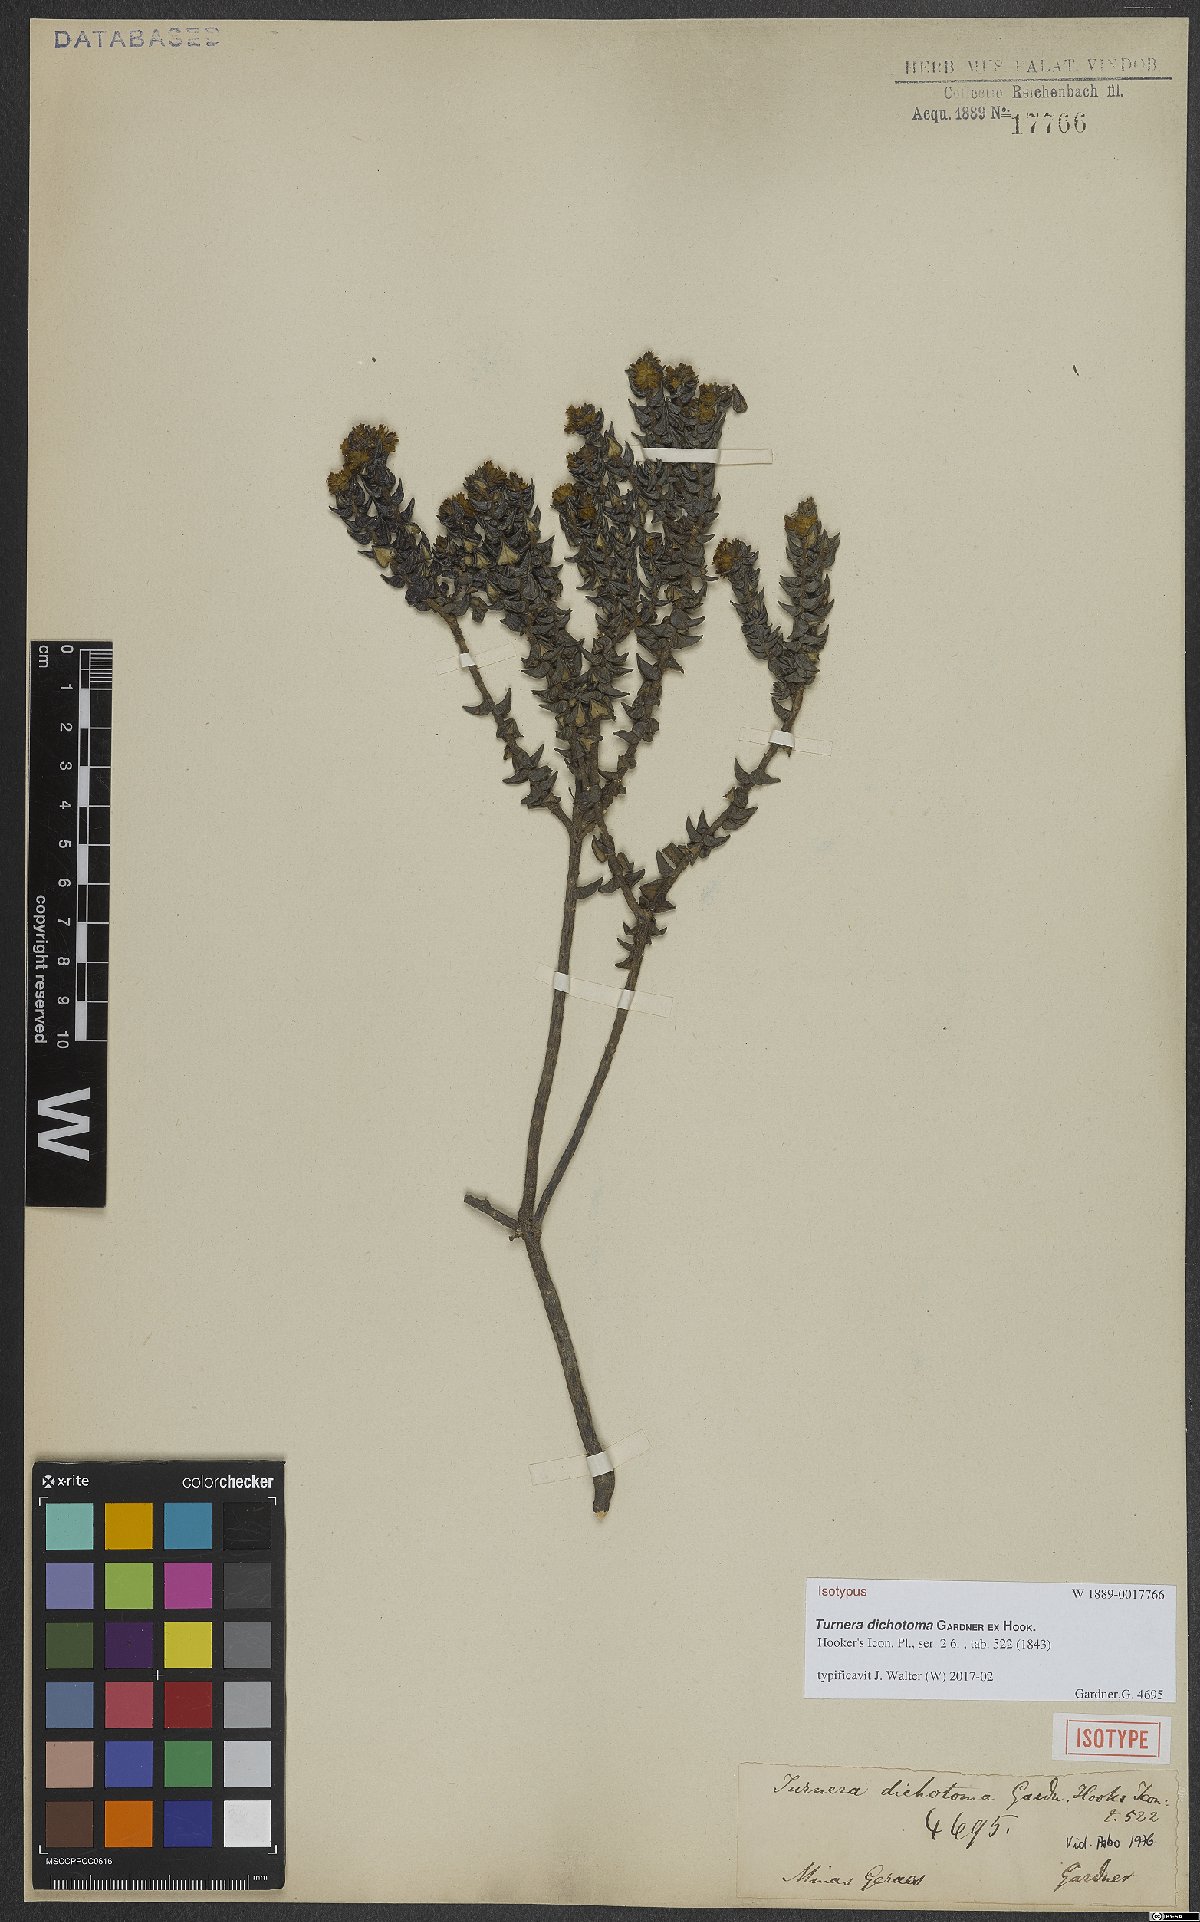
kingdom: Plantae
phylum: Tracheophyta
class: Magnoliopsida
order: Malpighiales
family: Turneraceae
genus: Turnera
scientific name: Turnera dichotoma
